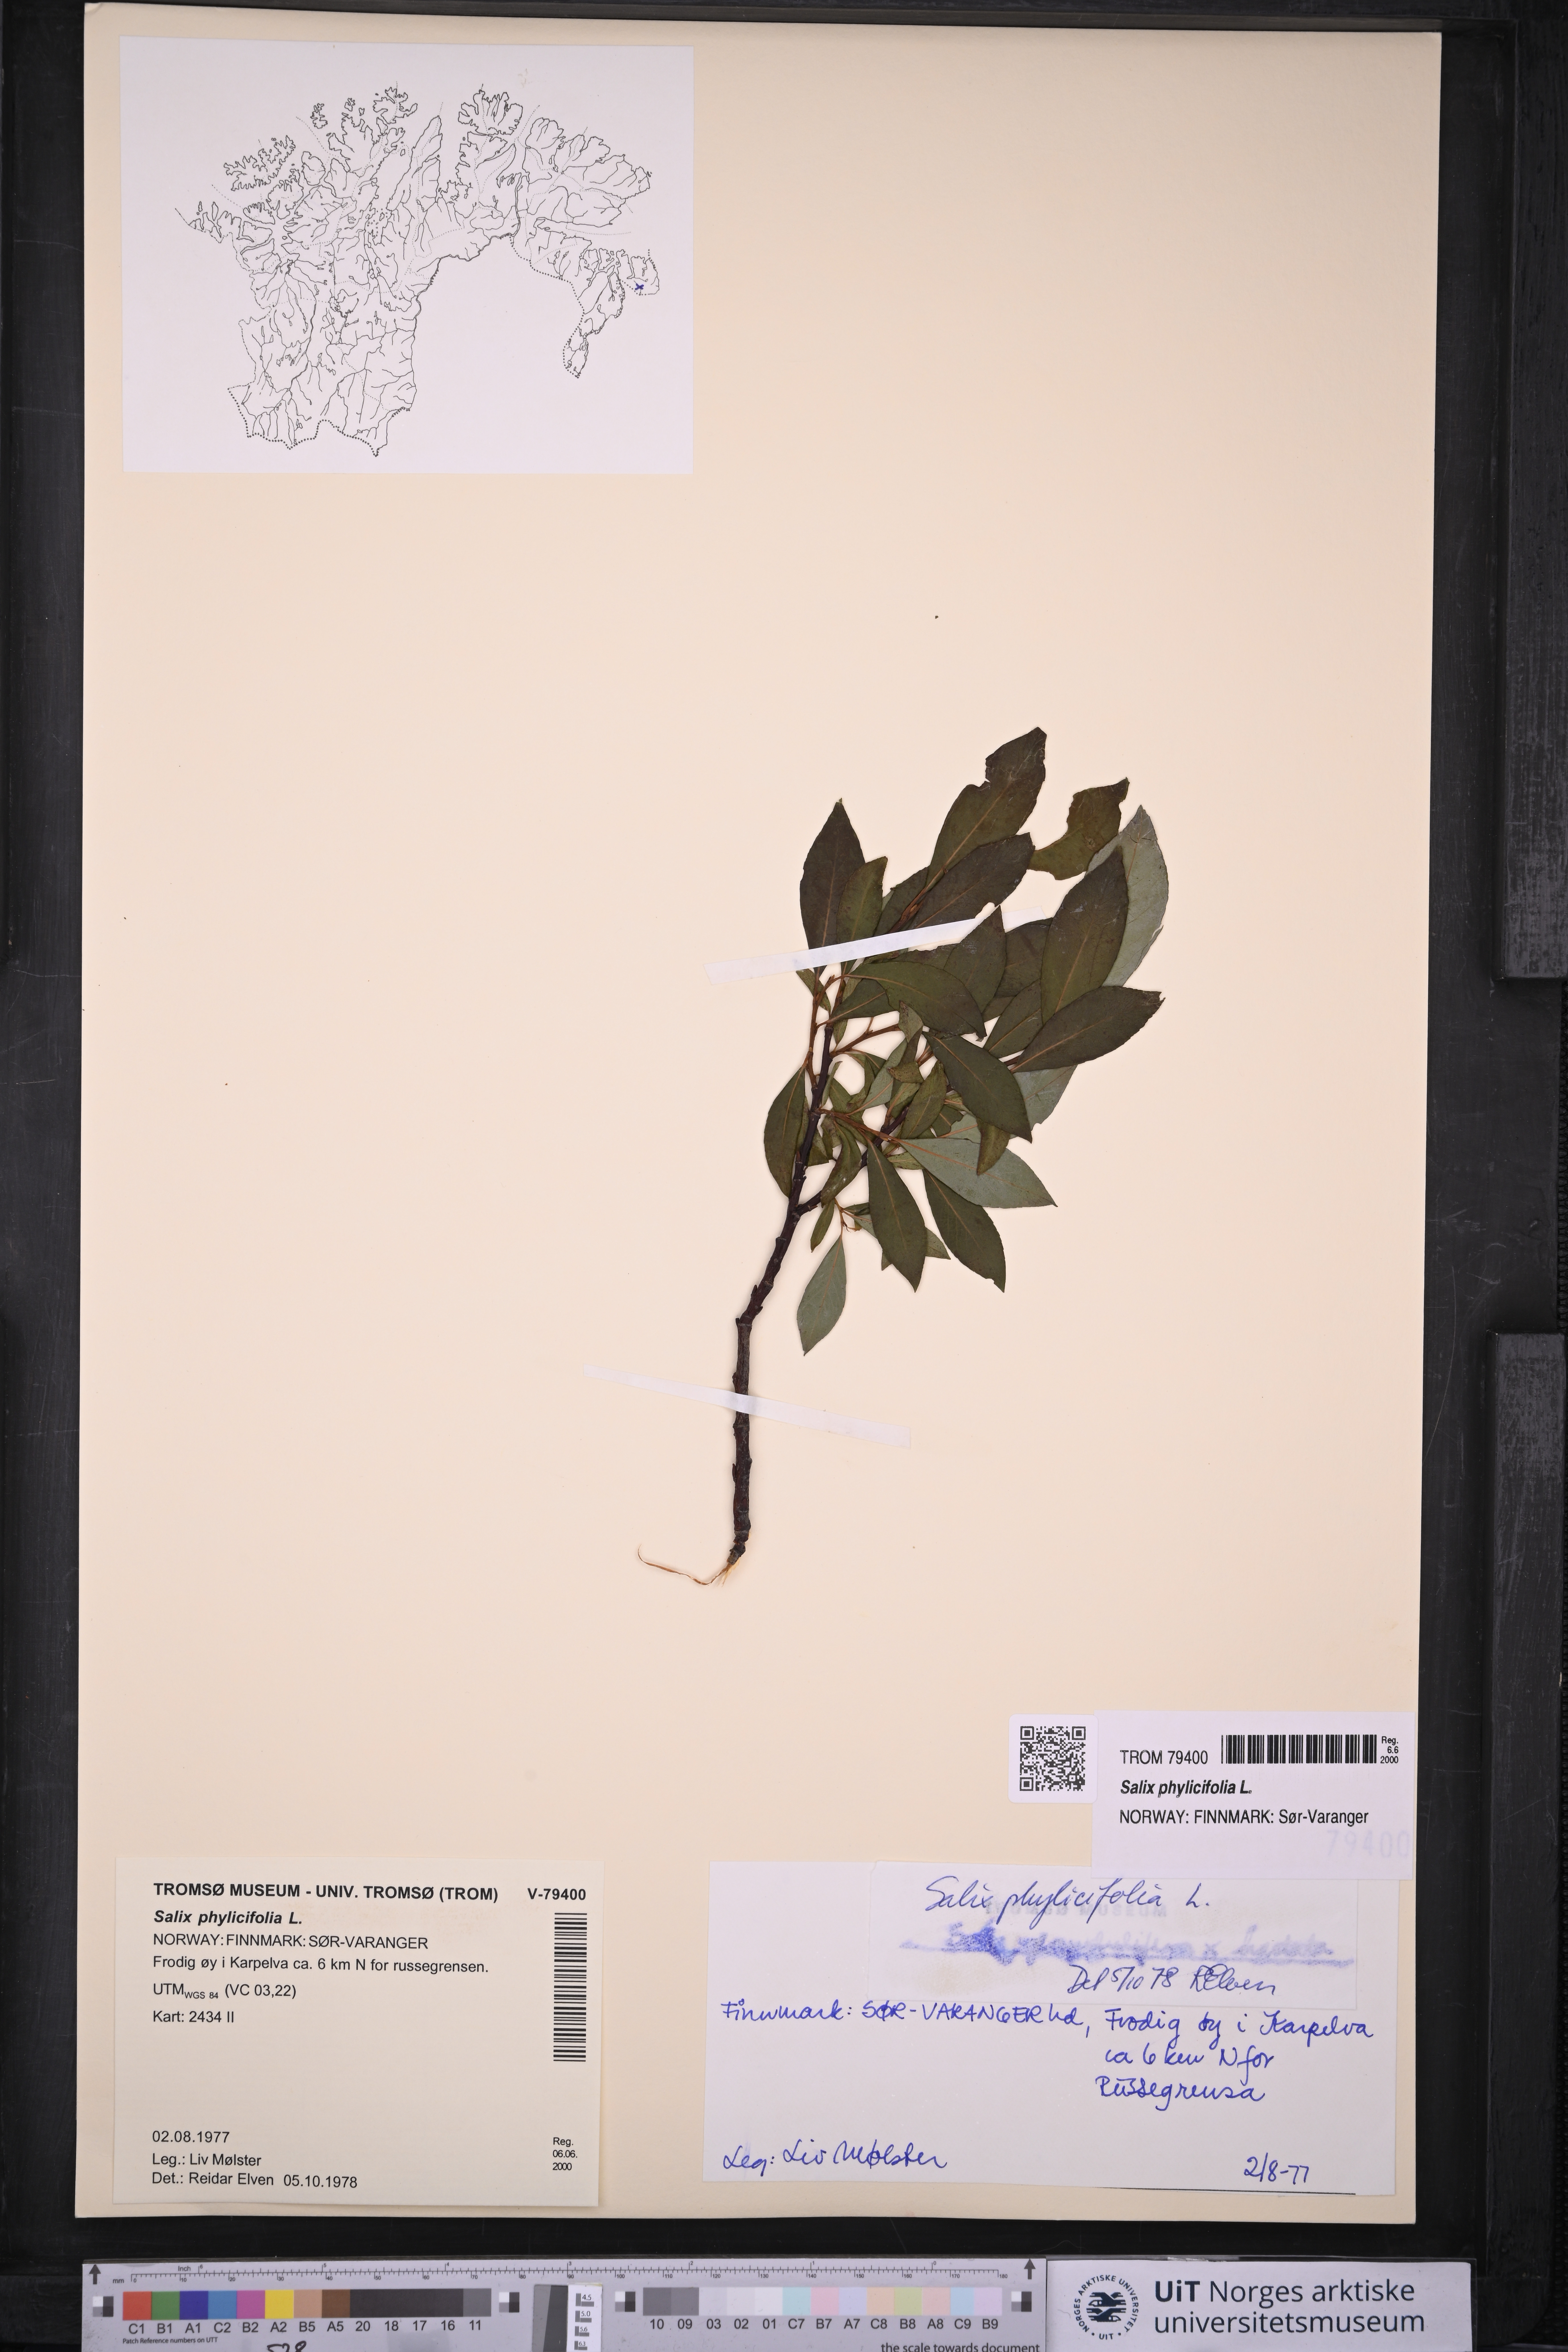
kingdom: Plantae
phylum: Tracheophyta
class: Magnoliopsida
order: Malpighiales
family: Salicaceae
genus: Salix
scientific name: Salix phylicifolia
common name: Tea-leaved willow
